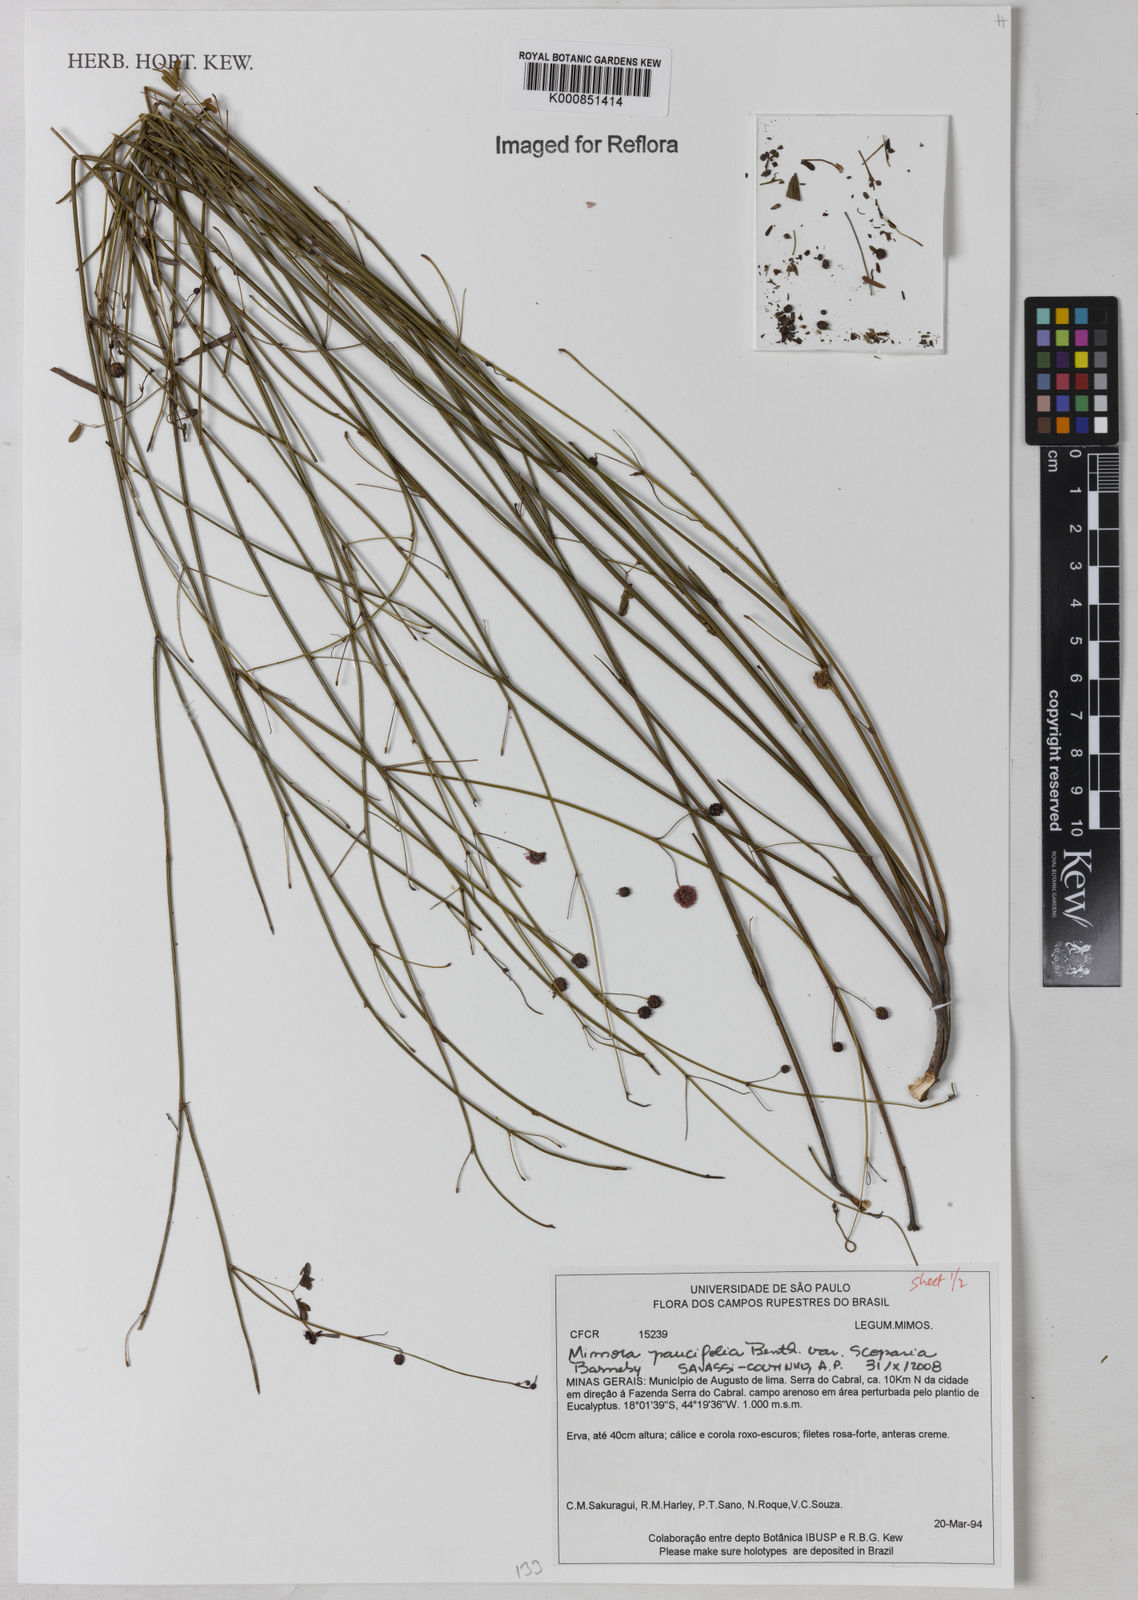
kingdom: Plantae
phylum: Tracheophyta
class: Magnoliopsida
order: Fabales
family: Fabaceae
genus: Mimosa
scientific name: Mimosa paucifolia
